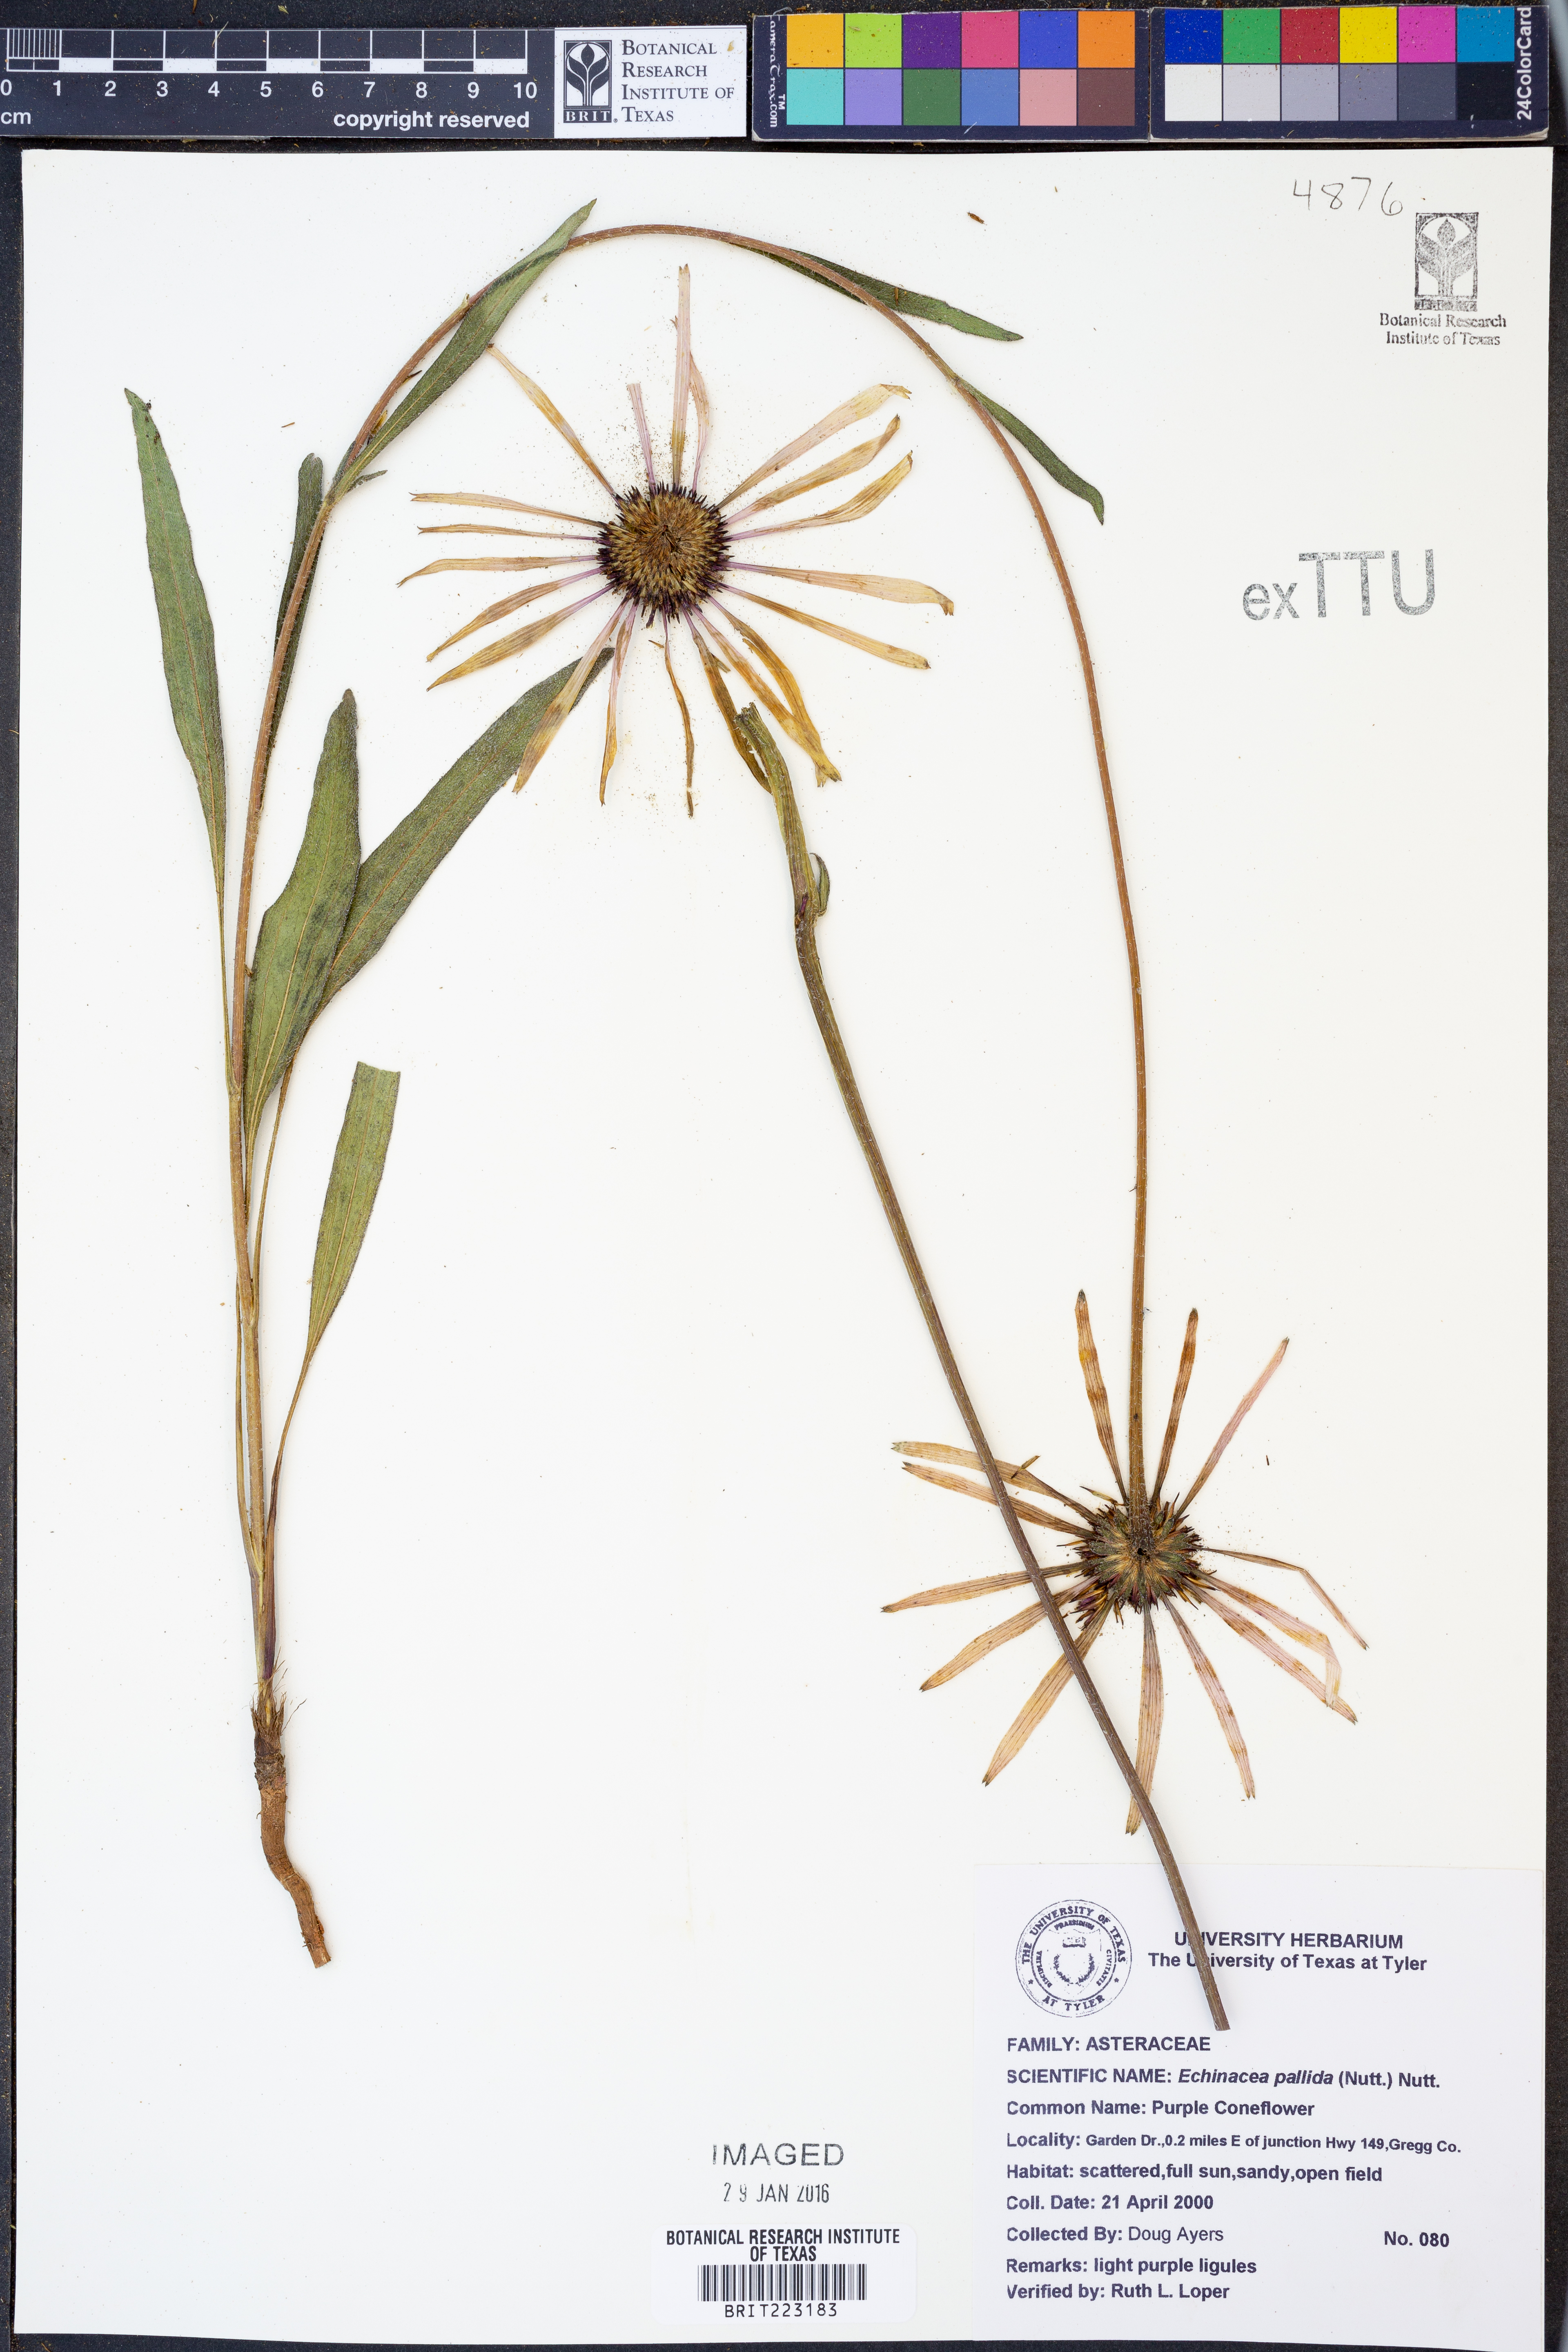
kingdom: Plantae
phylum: Tracheophyta
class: Magnoliopsida
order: Asterales
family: Asteraceae
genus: Echinacea
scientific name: Echinacea pallida
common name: Pale echinacea
